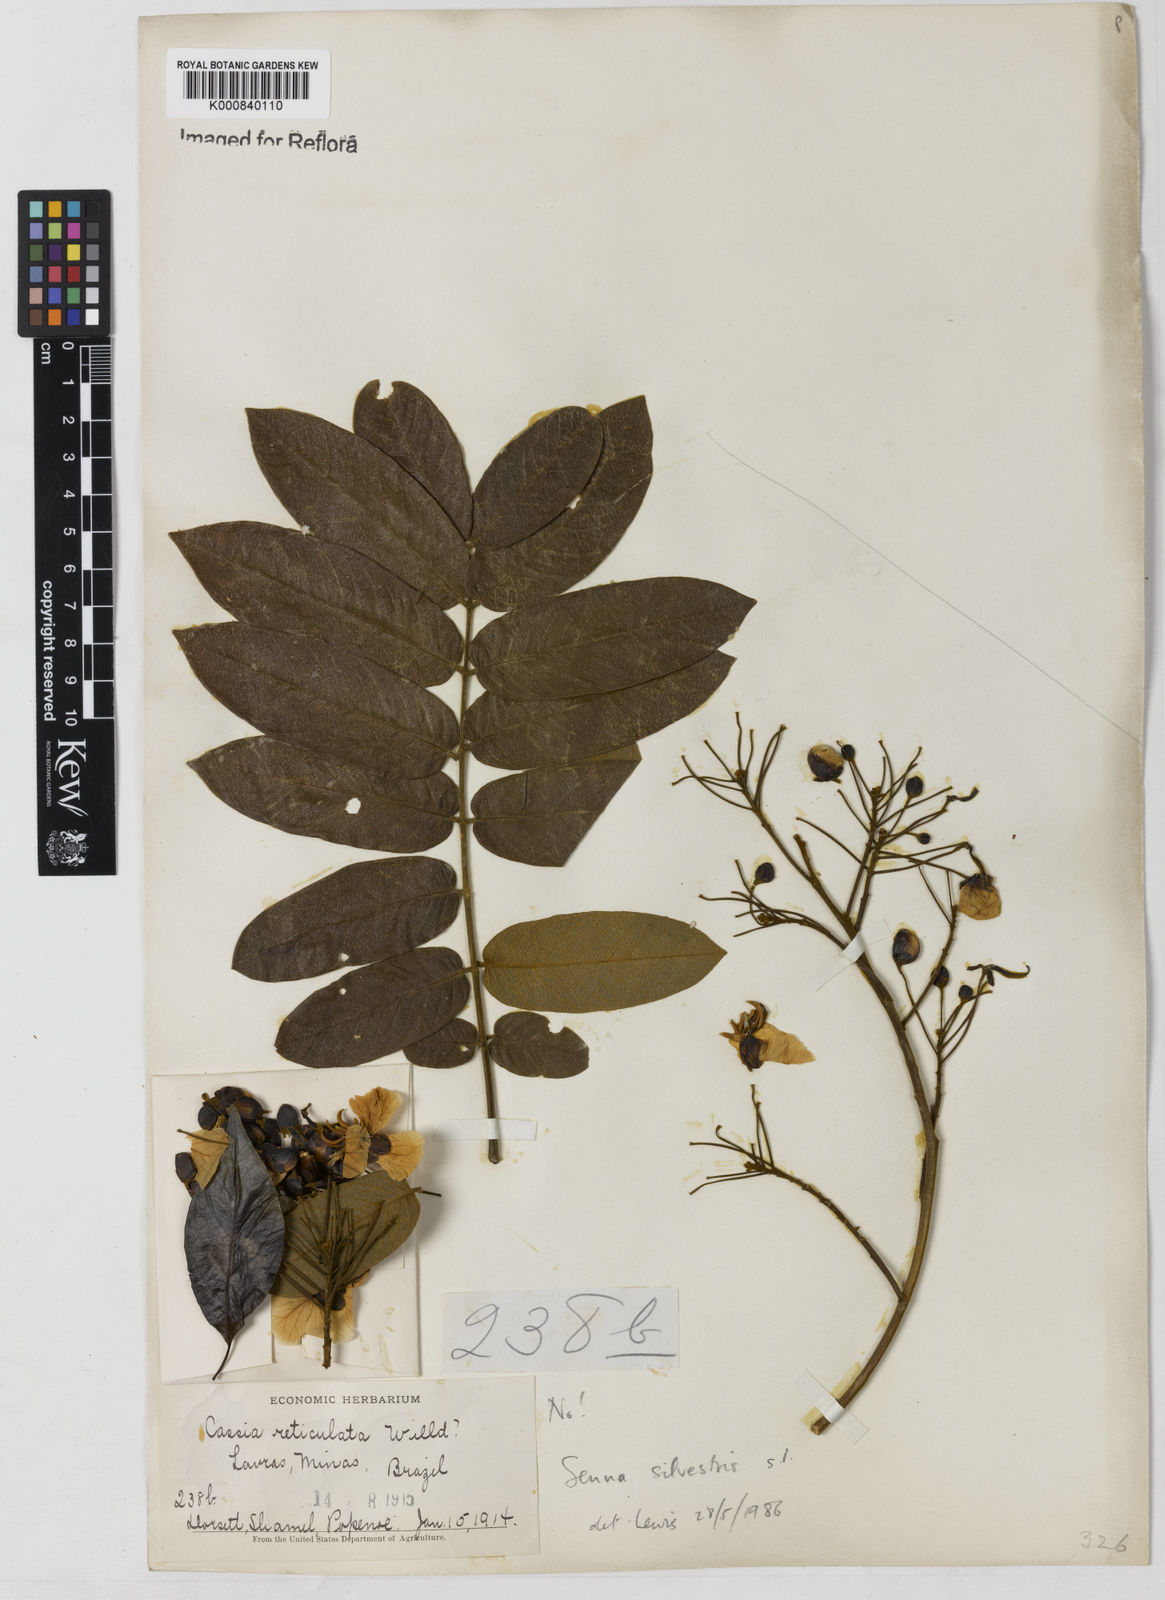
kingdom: Plantae
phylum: Tracheophyta
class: Magnoliopsida
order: Fabales
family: Fabaceae
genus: Senna
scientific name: Senna silvestris
